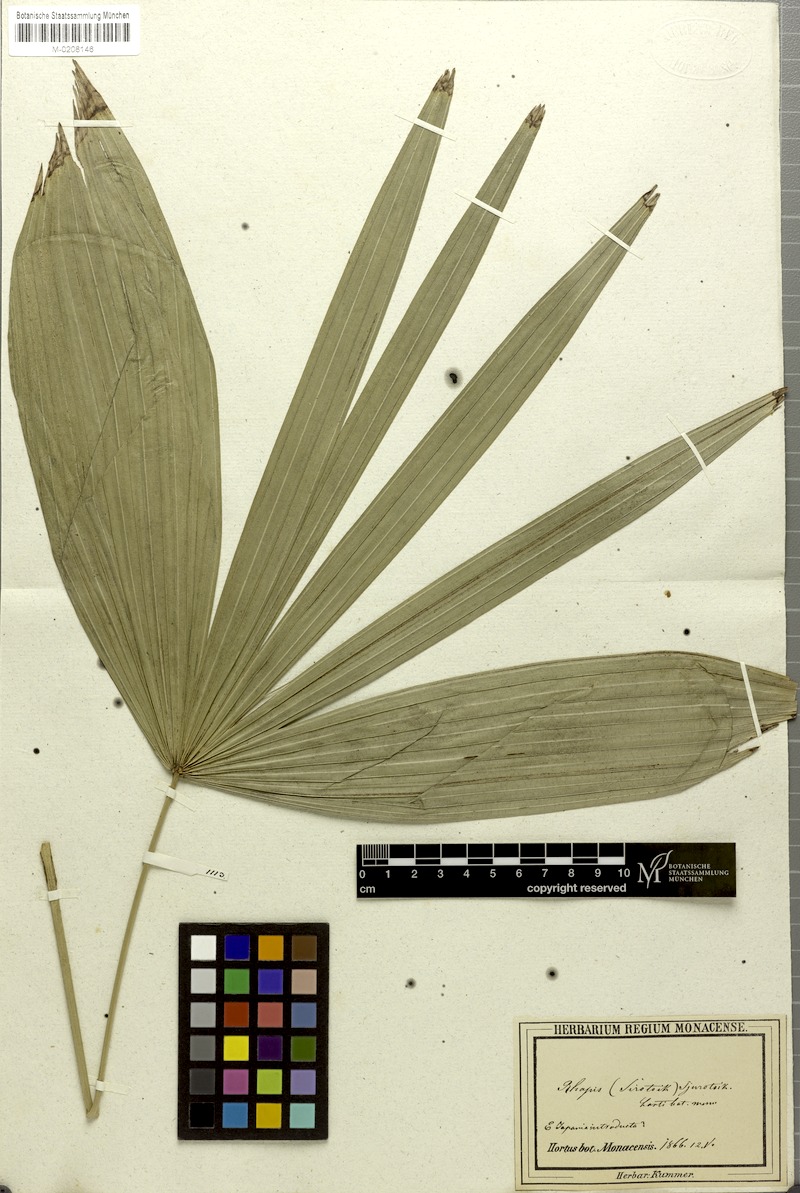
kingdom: Plantae
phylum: Tracheophyta
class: Liliopsida
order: Arecales
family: Arecaceae
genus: Rhapis
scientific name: Rhapis humilis
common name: Reed rhapis
